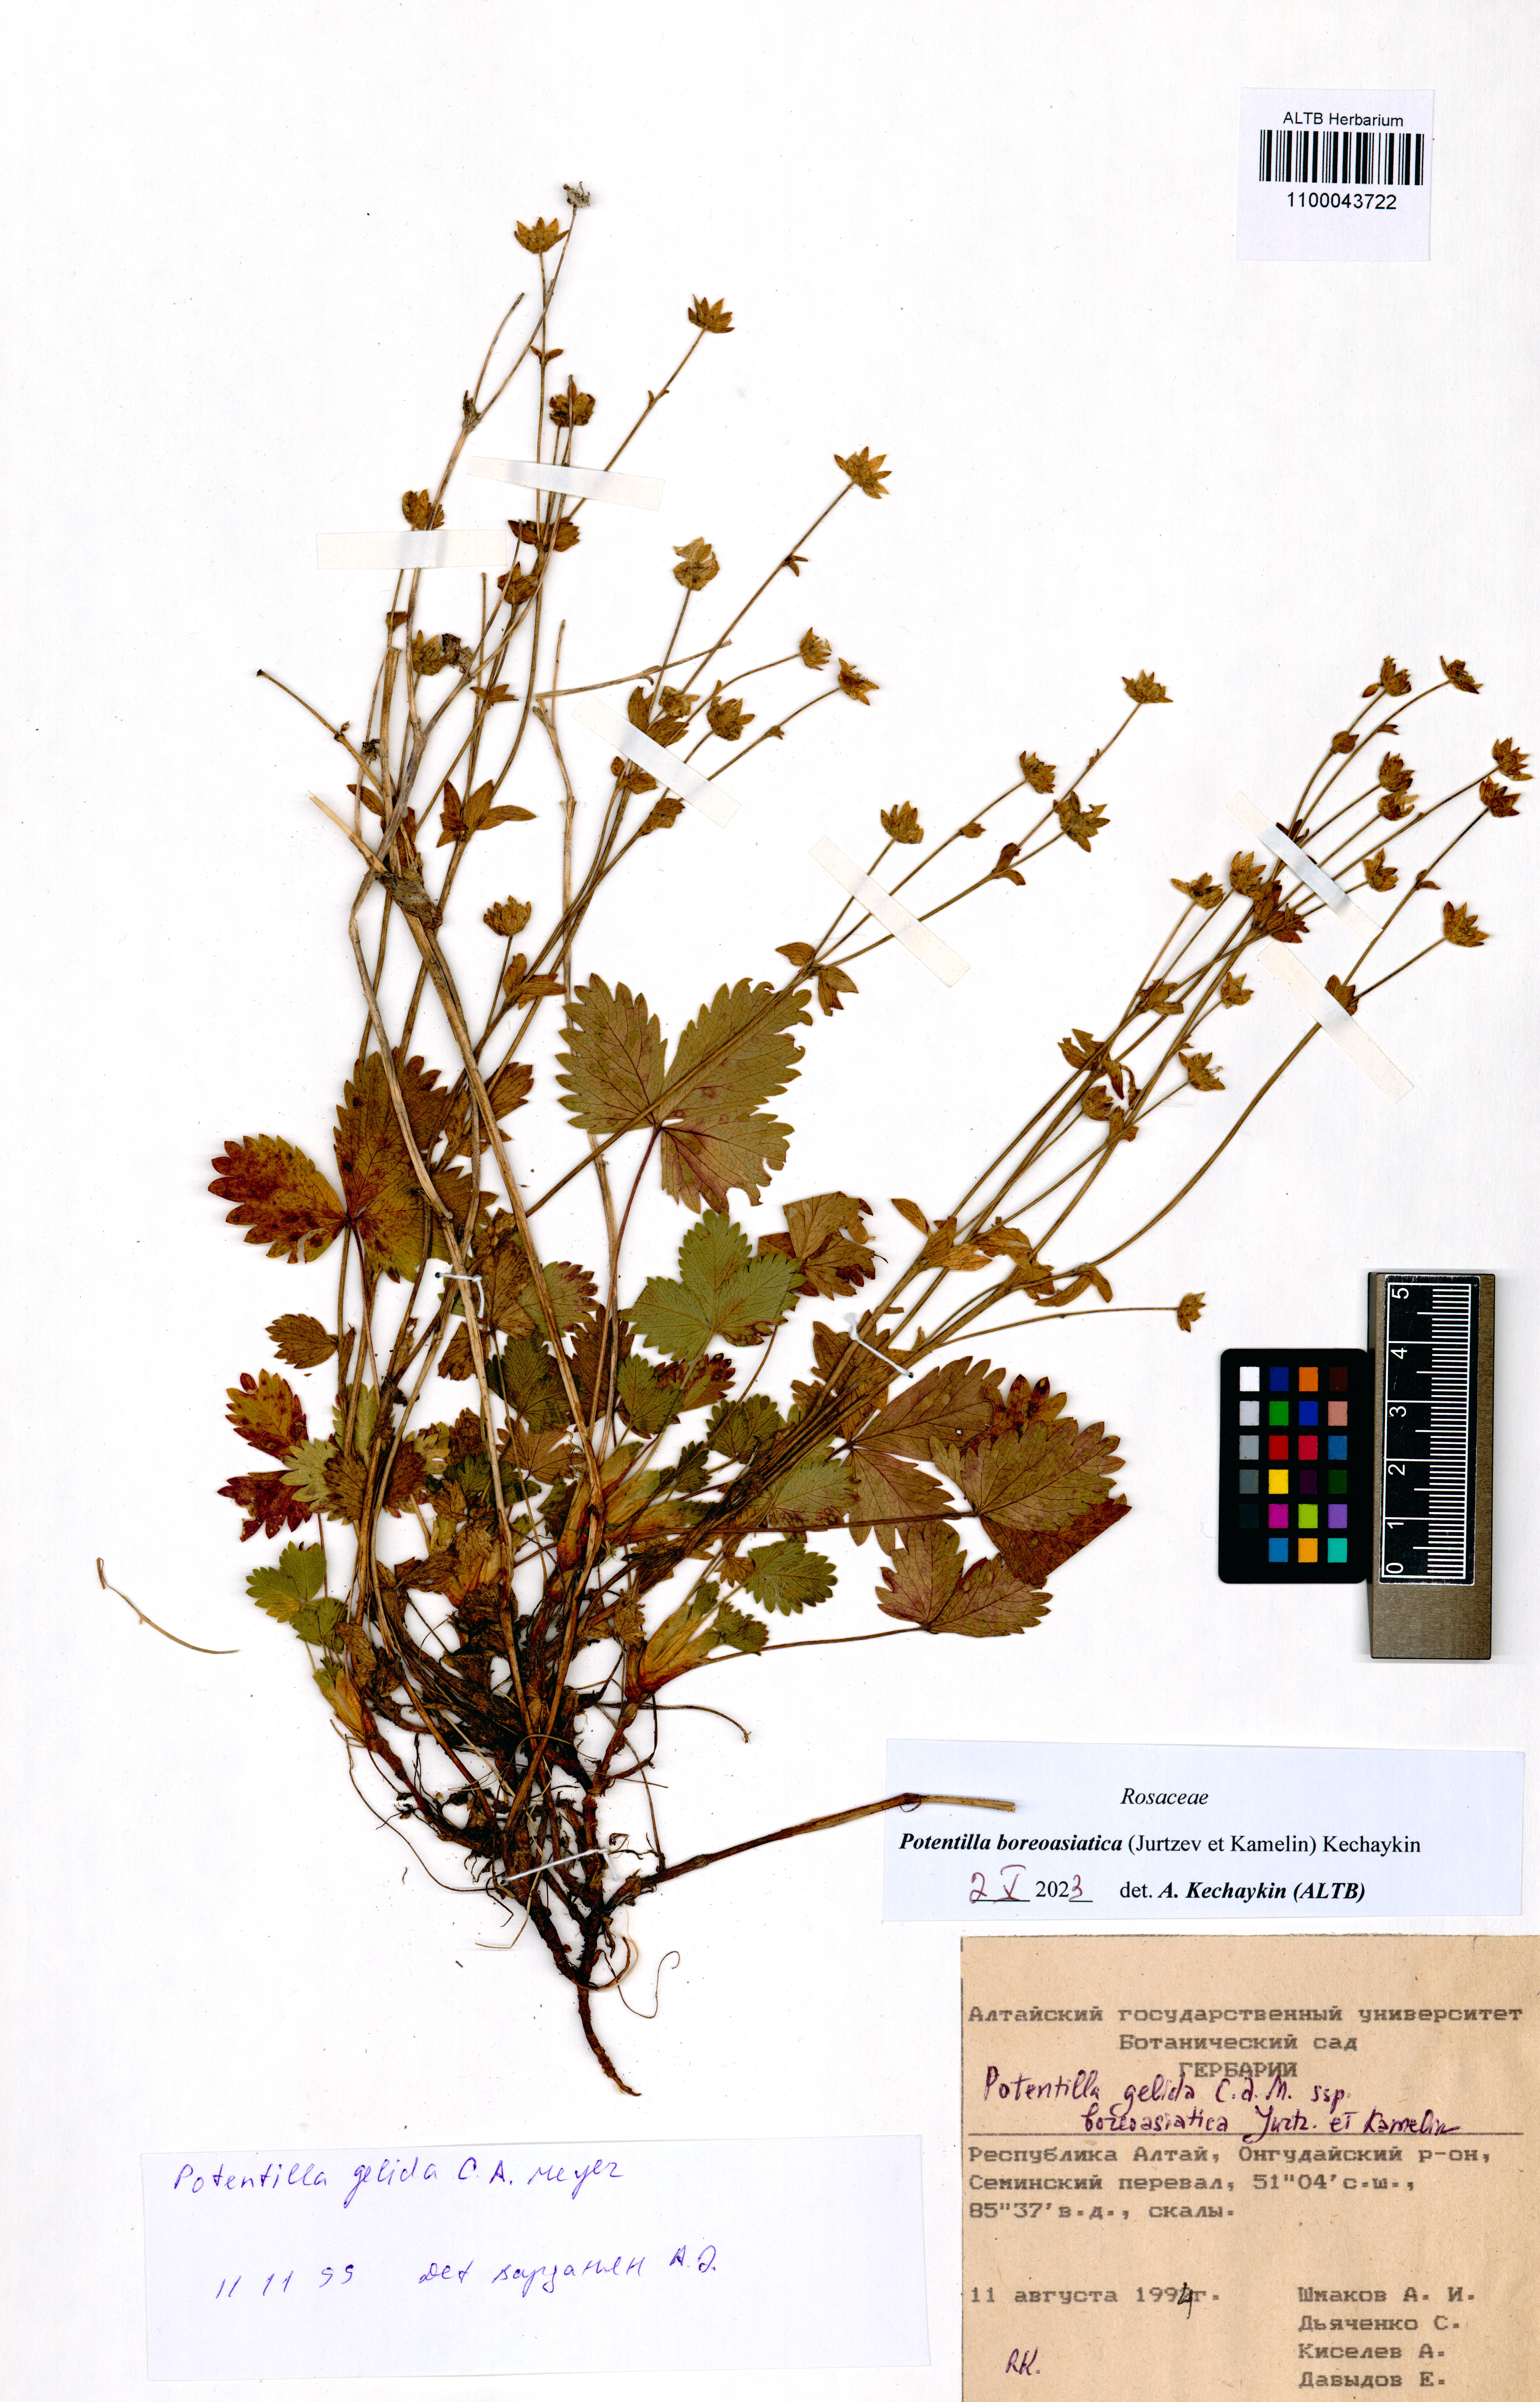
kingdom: Plantae
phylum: Tracheophyta
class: Magnoliopsida
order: Rosales
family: Rosaceae
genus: Potentilla
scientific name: Potentilla
